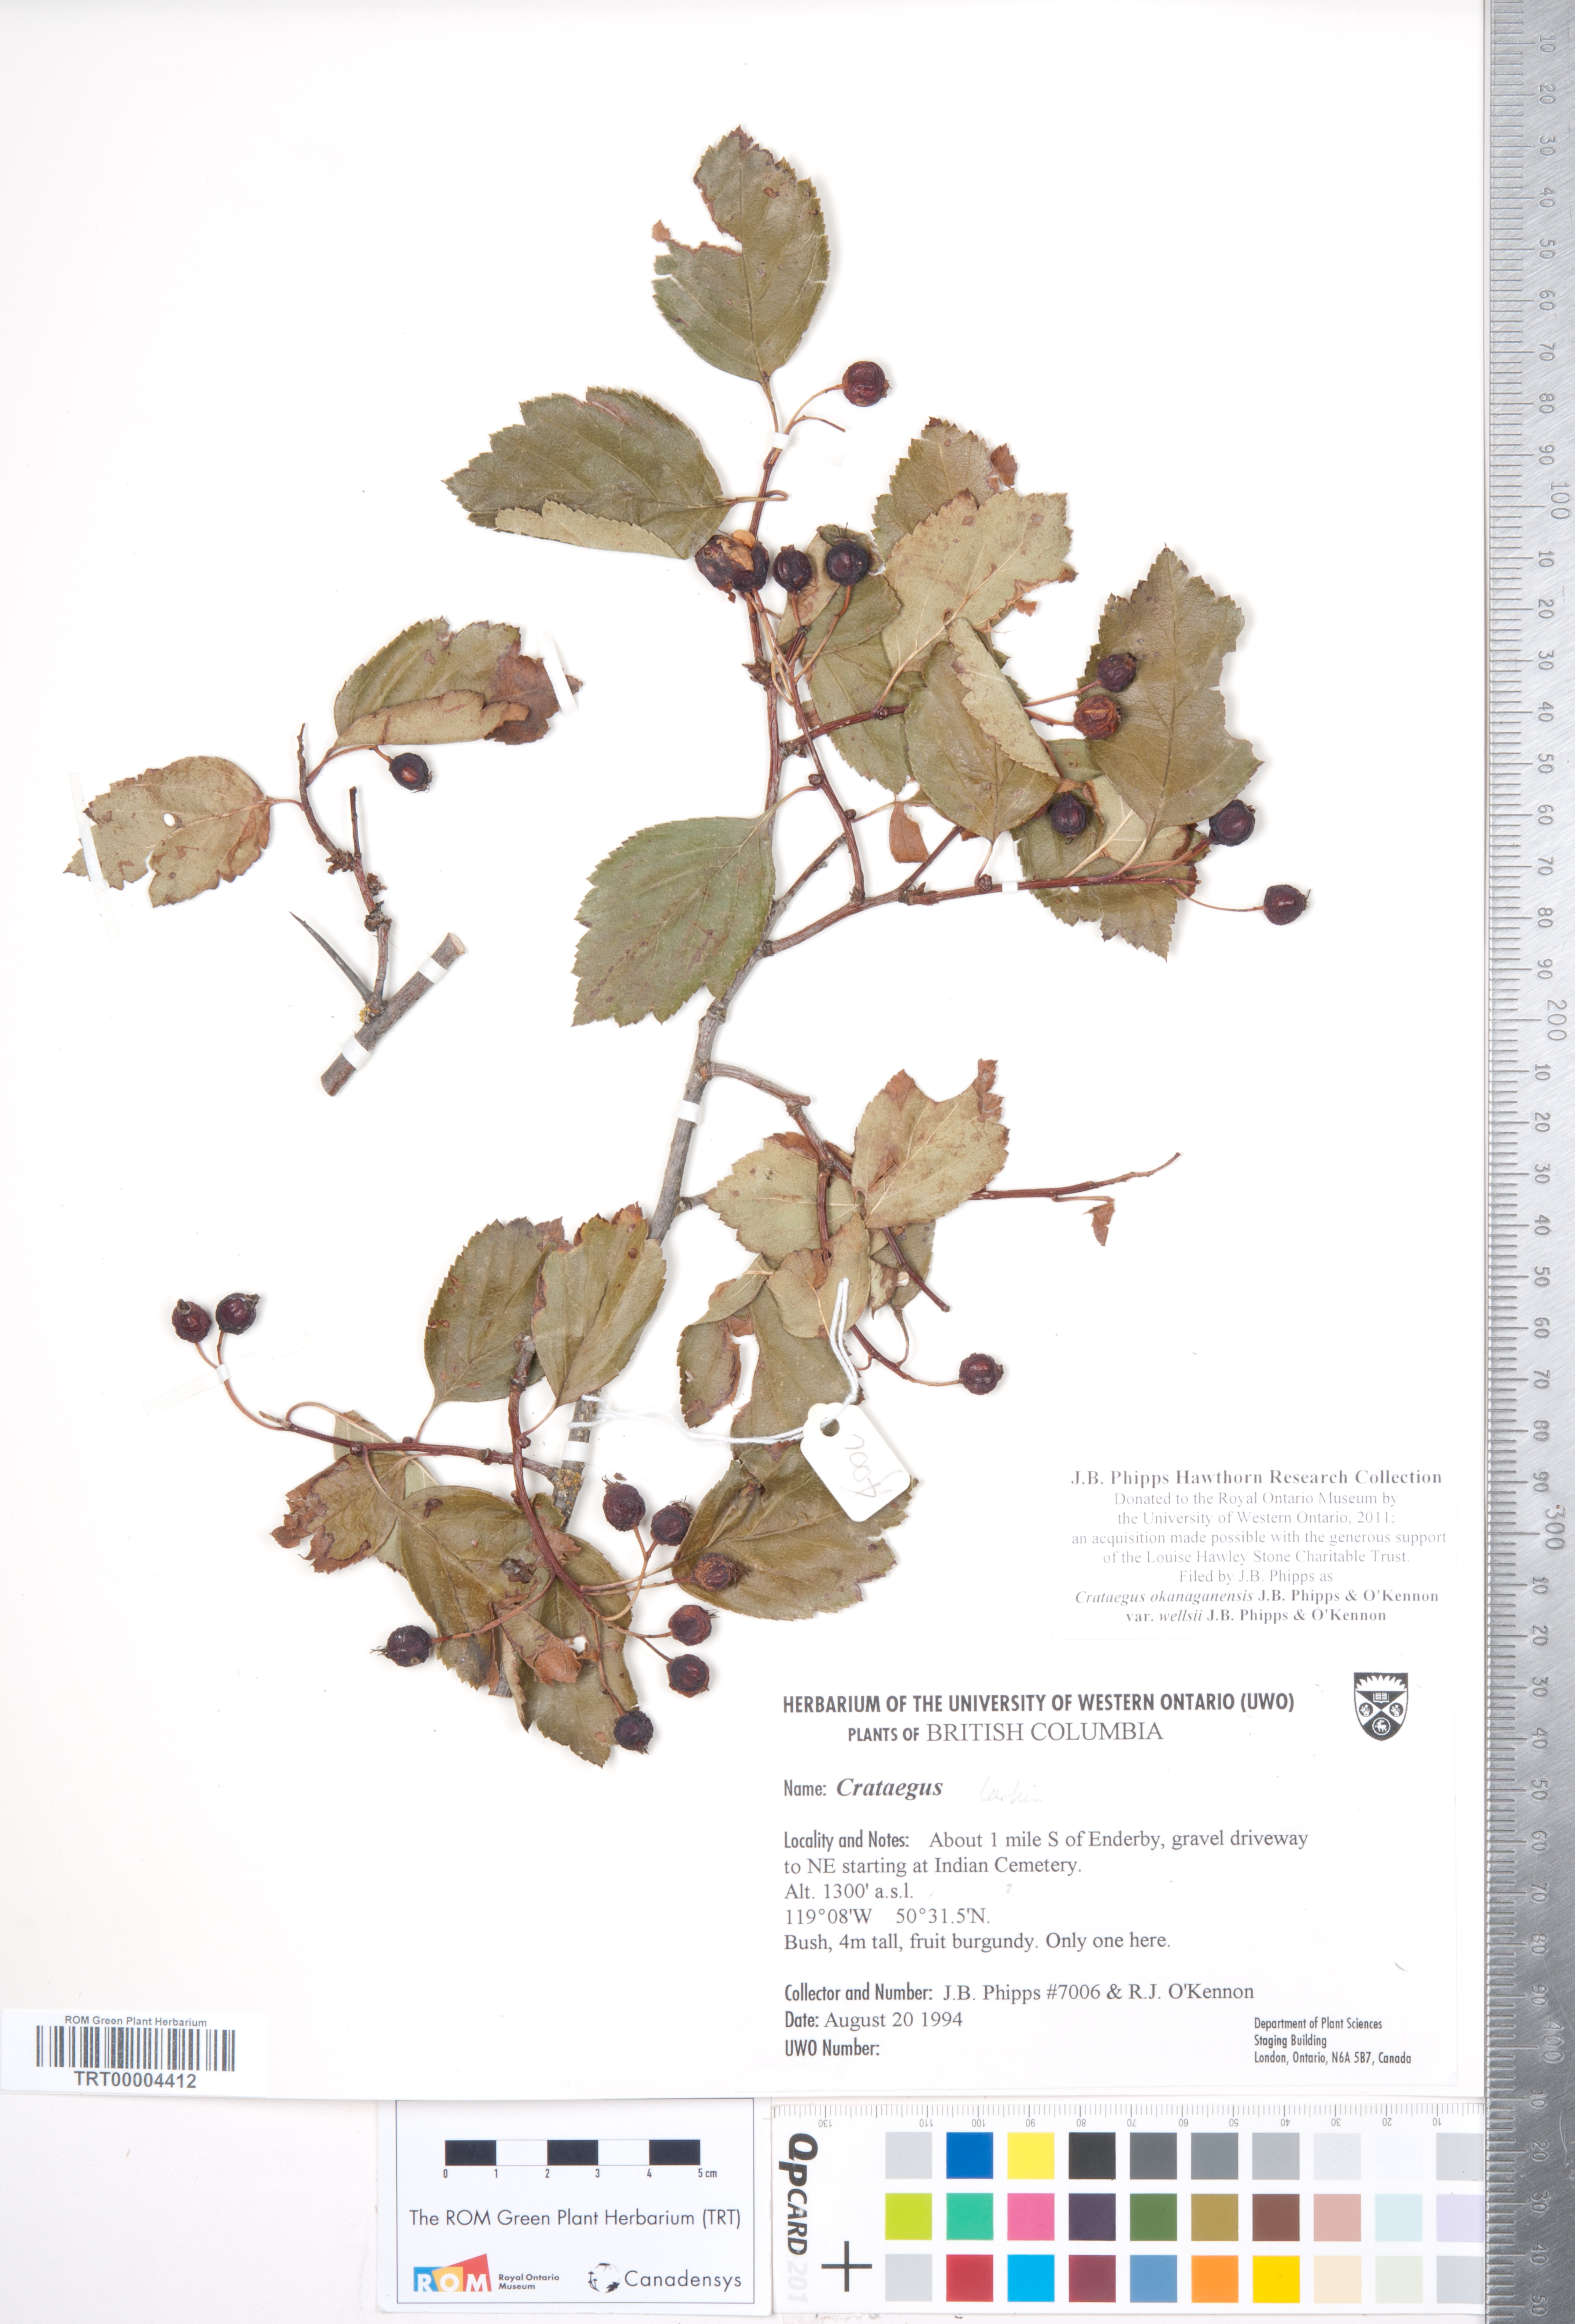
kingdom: Plantae
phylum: Tracheophyta
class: Magnoliopsida
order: Rosales
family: Rosaceae
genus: Crataegus
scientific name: Crataegus okanaganensis
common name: Okanagan valley hawthorn
